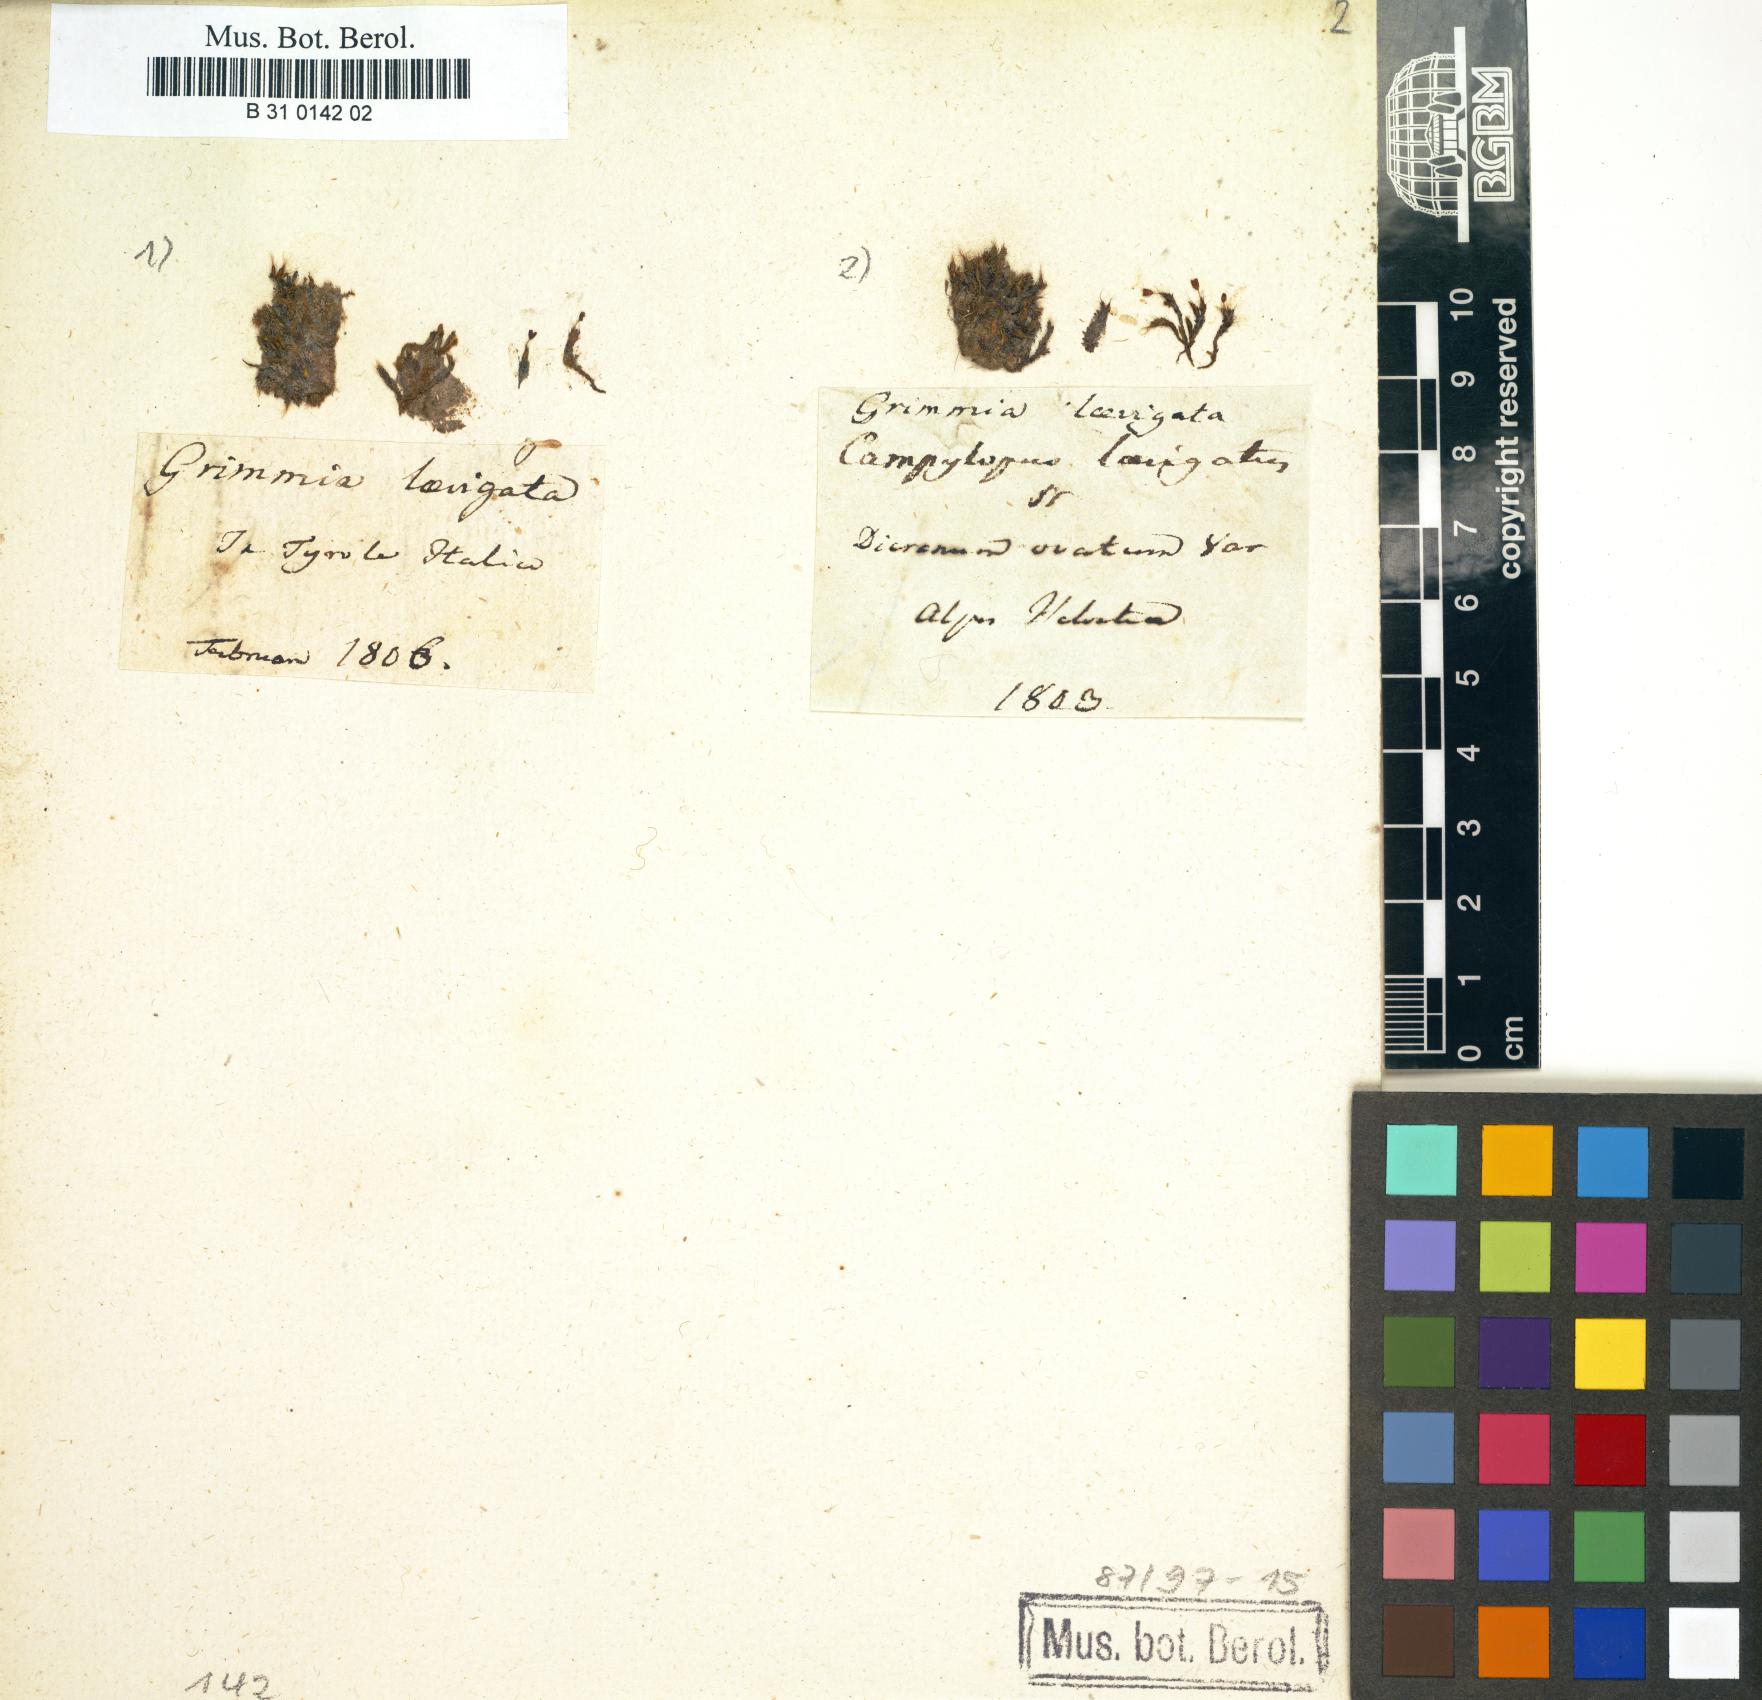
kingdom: Plantae
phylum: Bryophyta
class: Bryopsida
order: Grimmiales
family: Grimmiaceae
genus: Grimmia
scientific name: Grimmia laevigata
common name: Hoary grimmia
